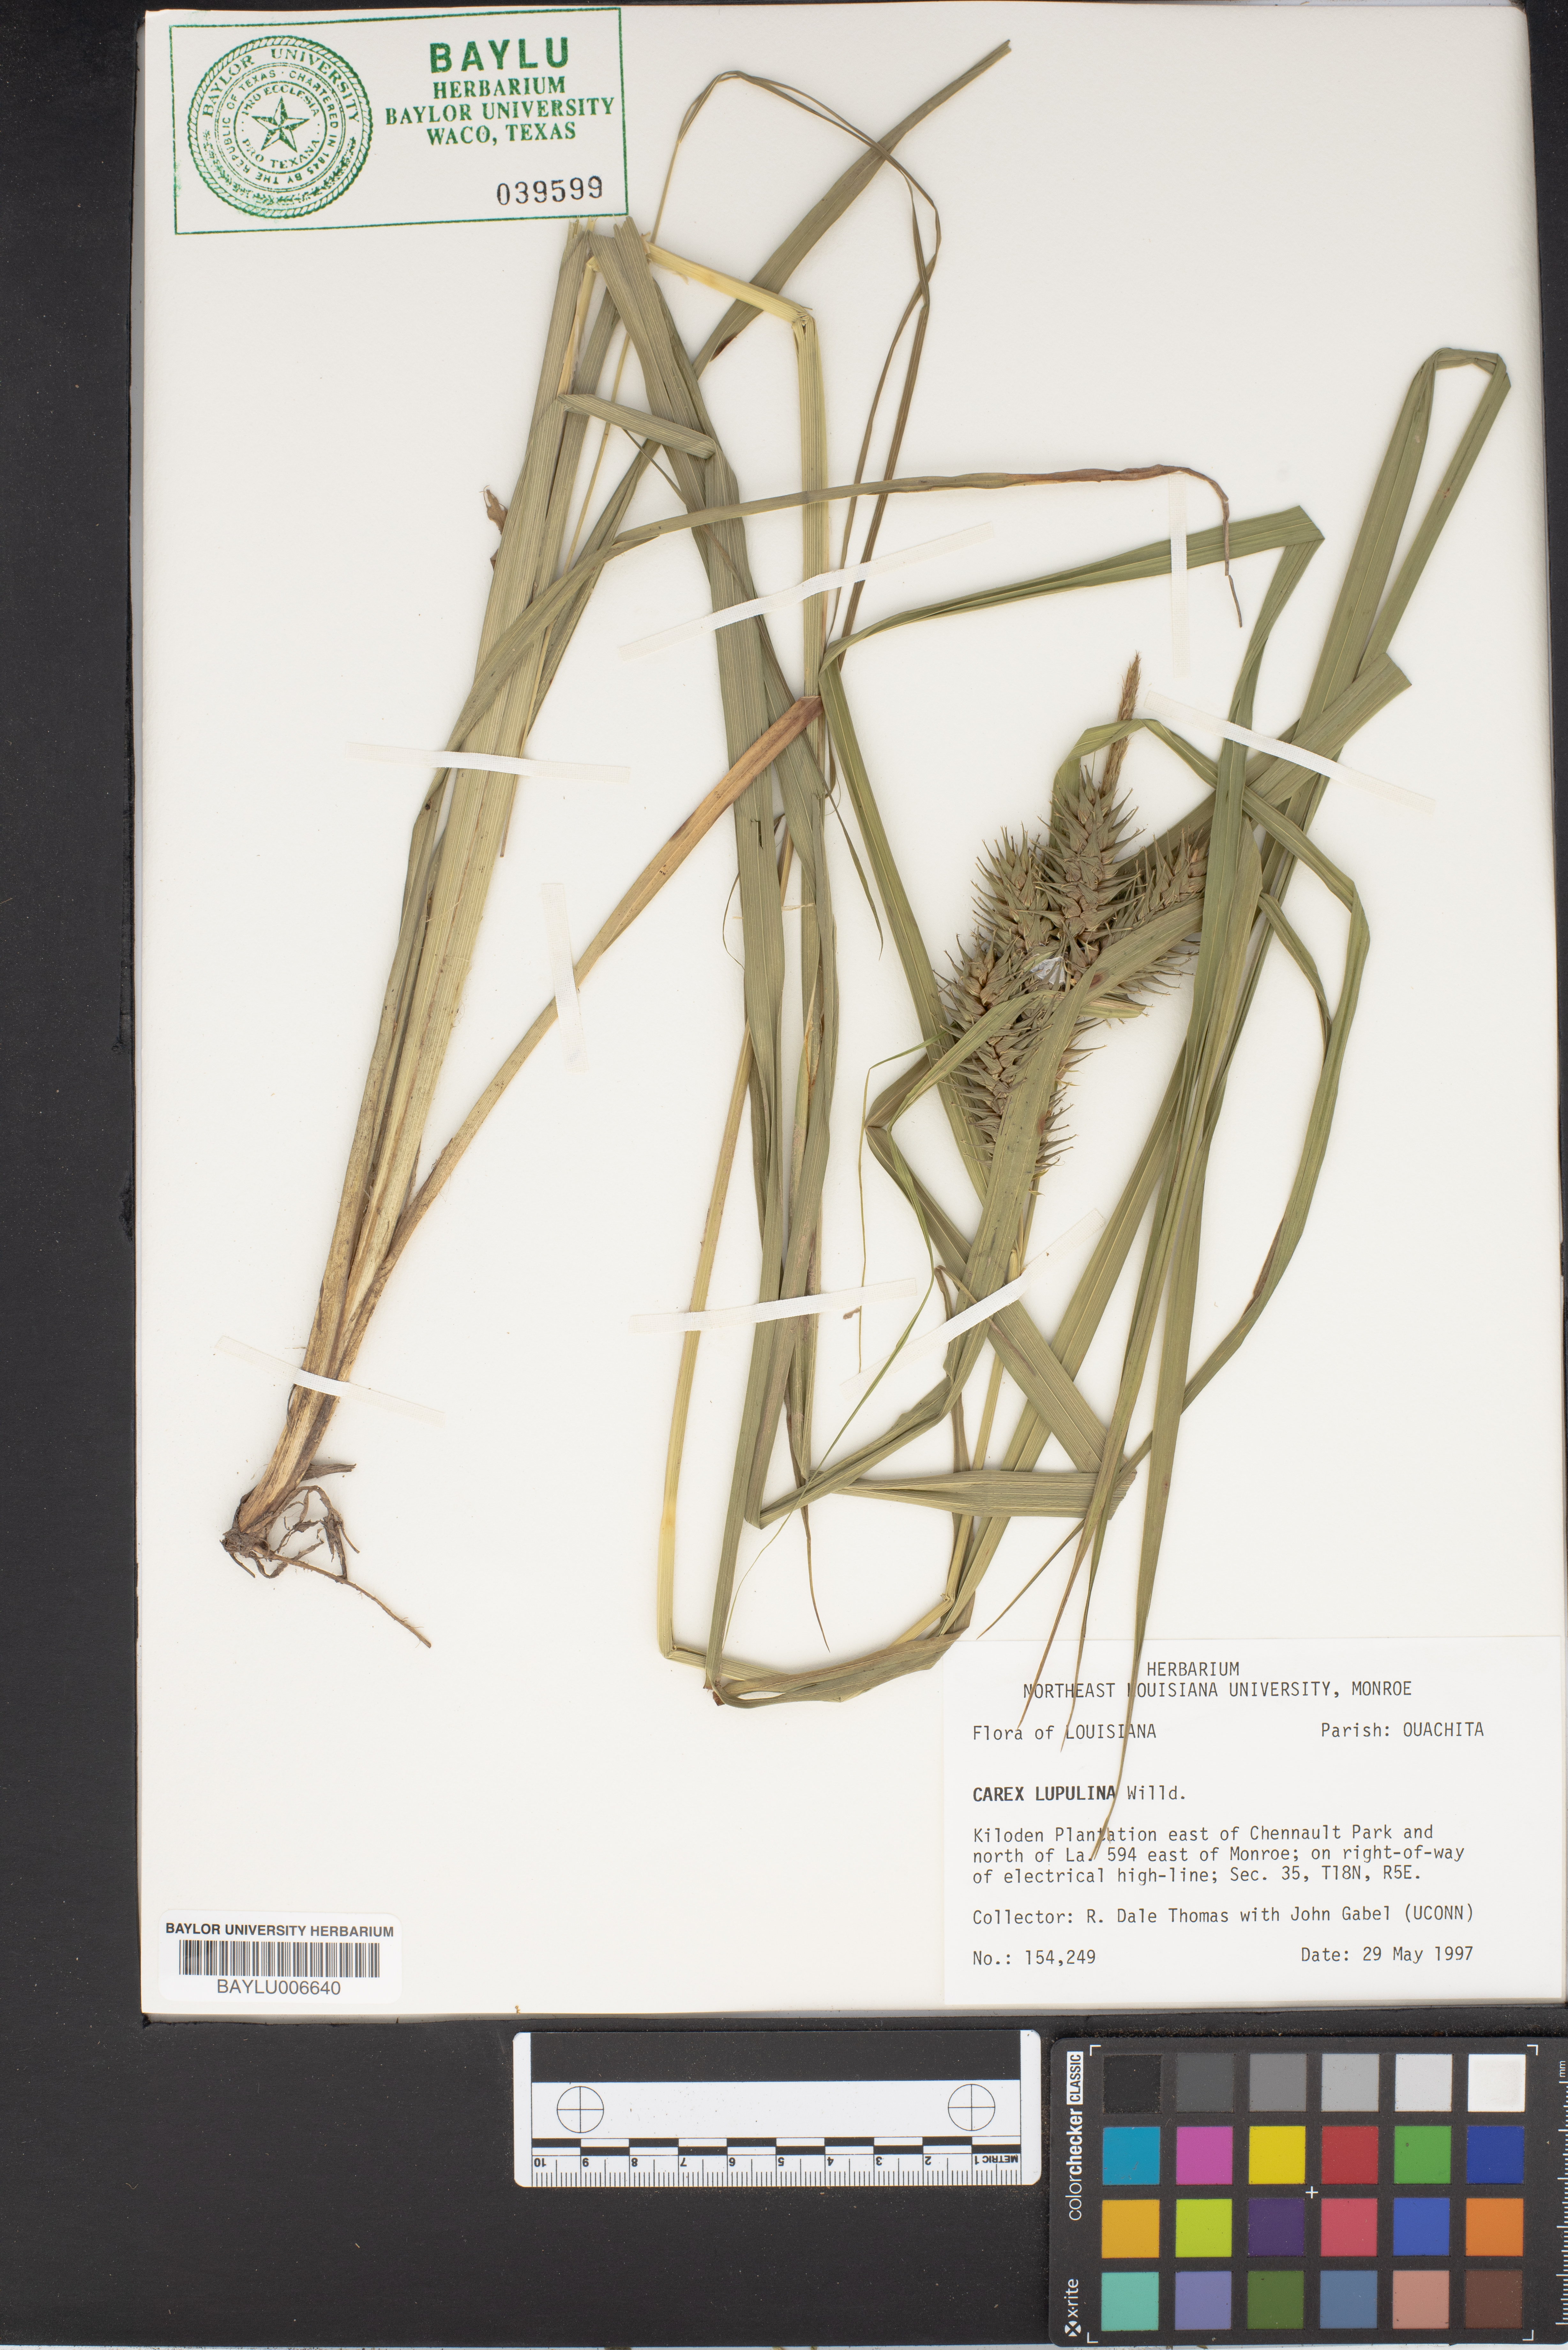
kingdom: Plantae
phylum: Tracheophyta
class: Liliopsida
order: Poales
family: Cyperaceae
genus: Carex
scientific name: Carex lupulina
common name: Hop sedge
